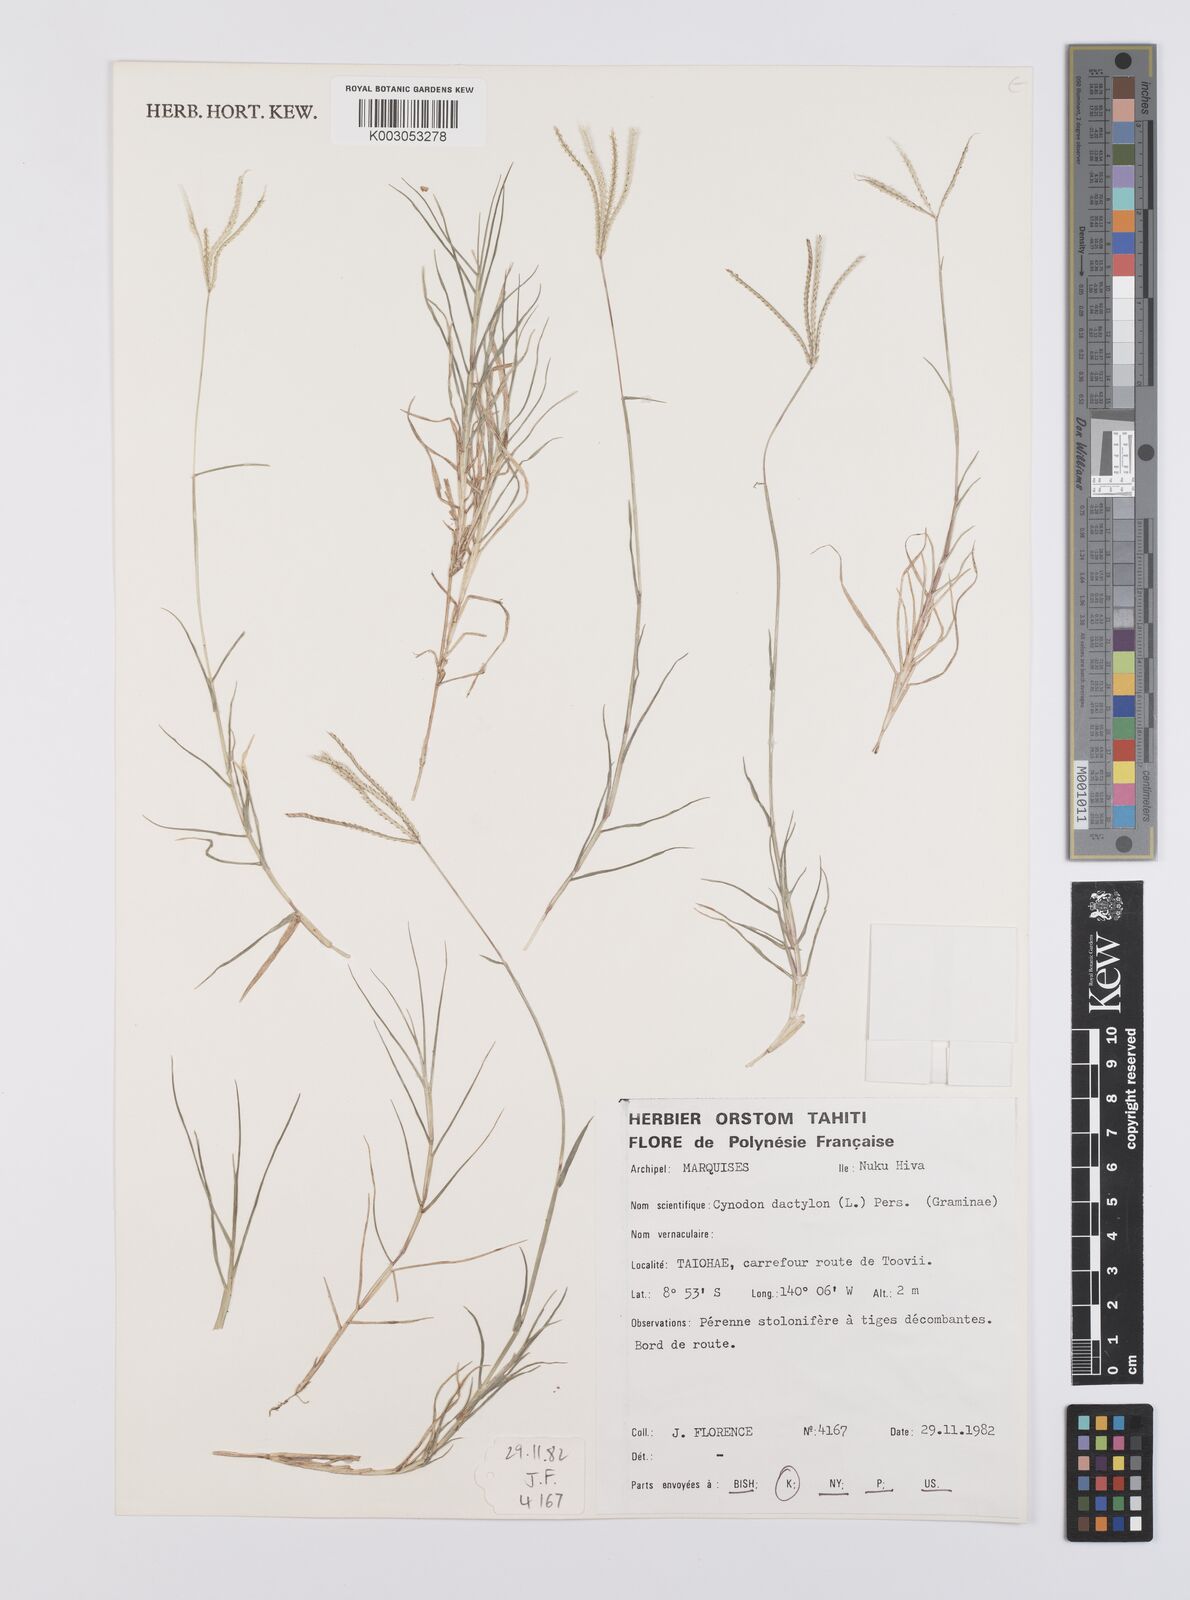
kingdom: Plantae
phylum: Tracheophyta
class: Liliopsida
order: Poales
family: Poaceae
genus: Cynodon
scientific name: Cynodon dactylon
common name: Bermuda grass
